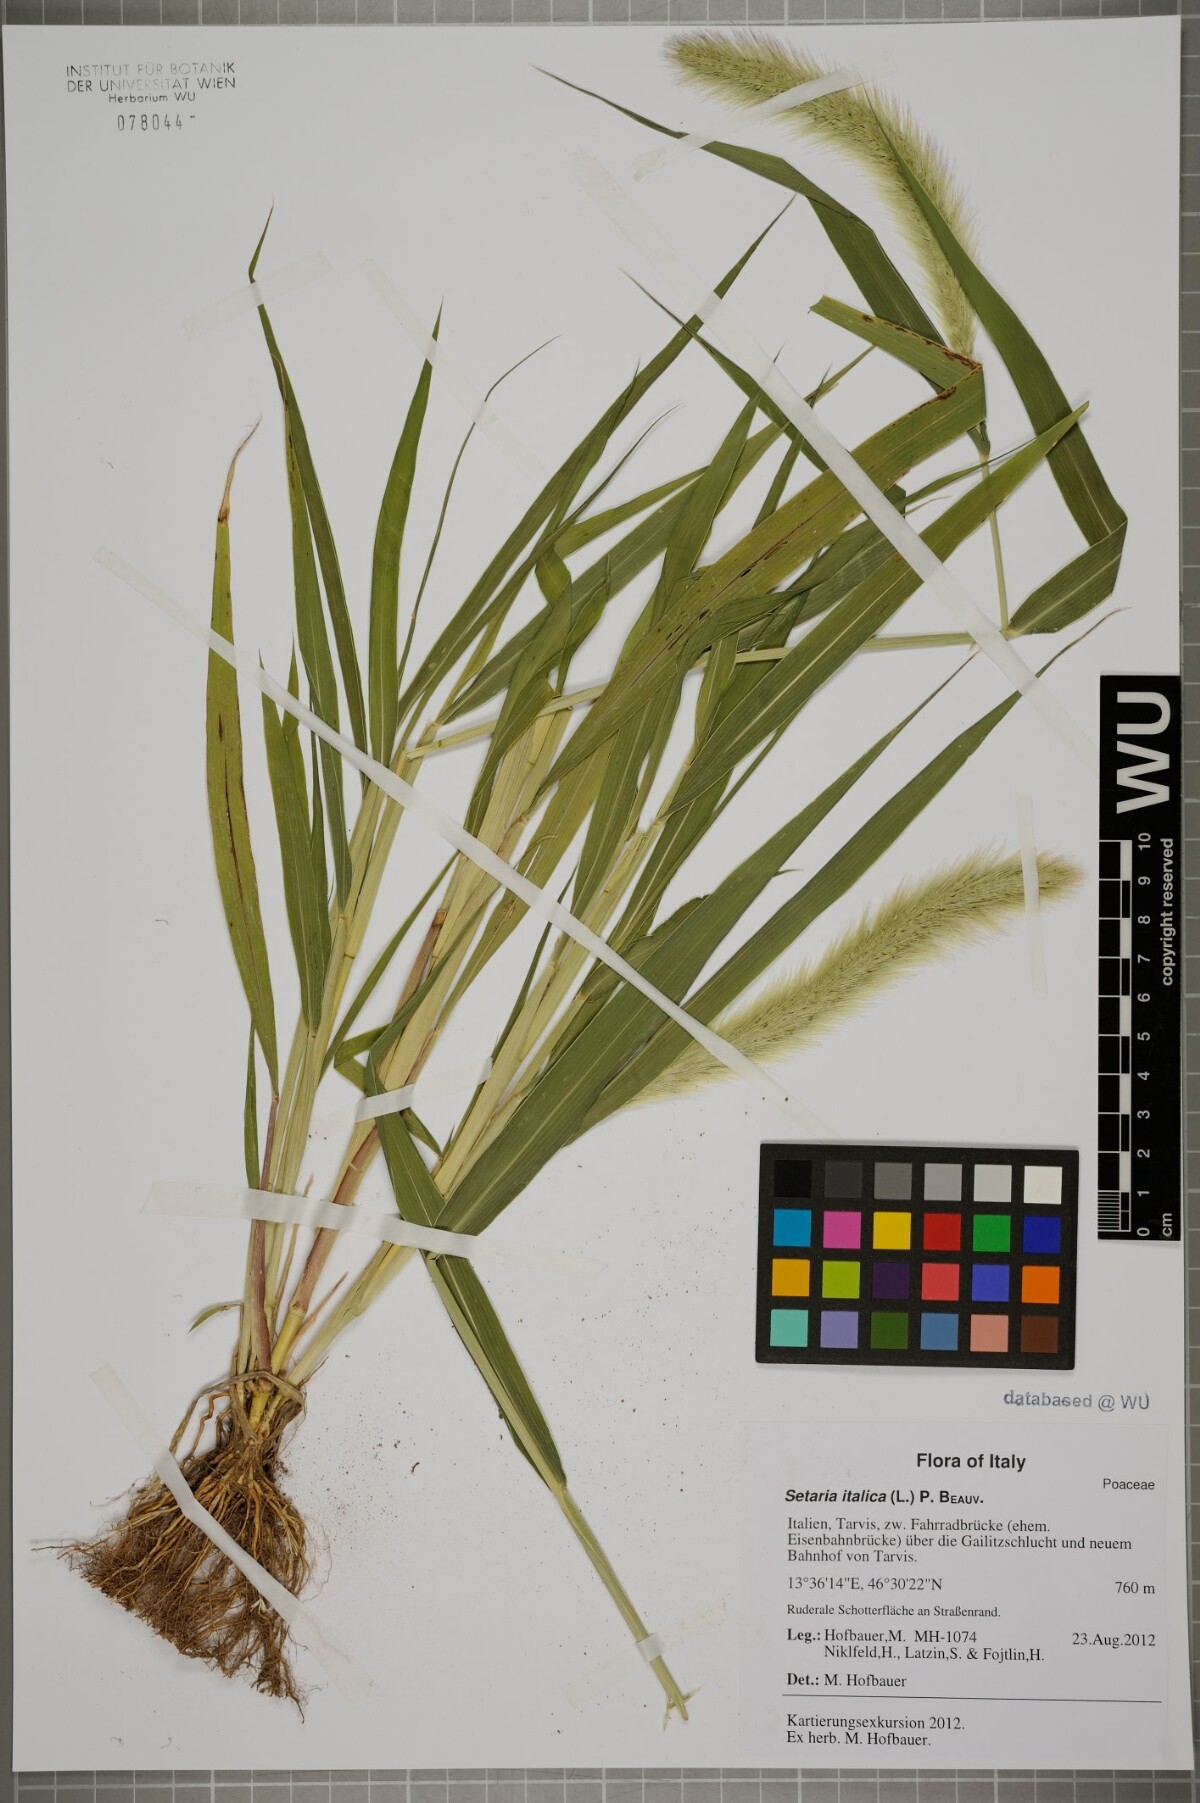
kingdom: Plantae
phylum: Tracheophyta
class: Liliopsida
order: Poales
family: Poaceae
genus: Setaria
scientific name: Setaria italica
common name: Foxtail bristle-grass
